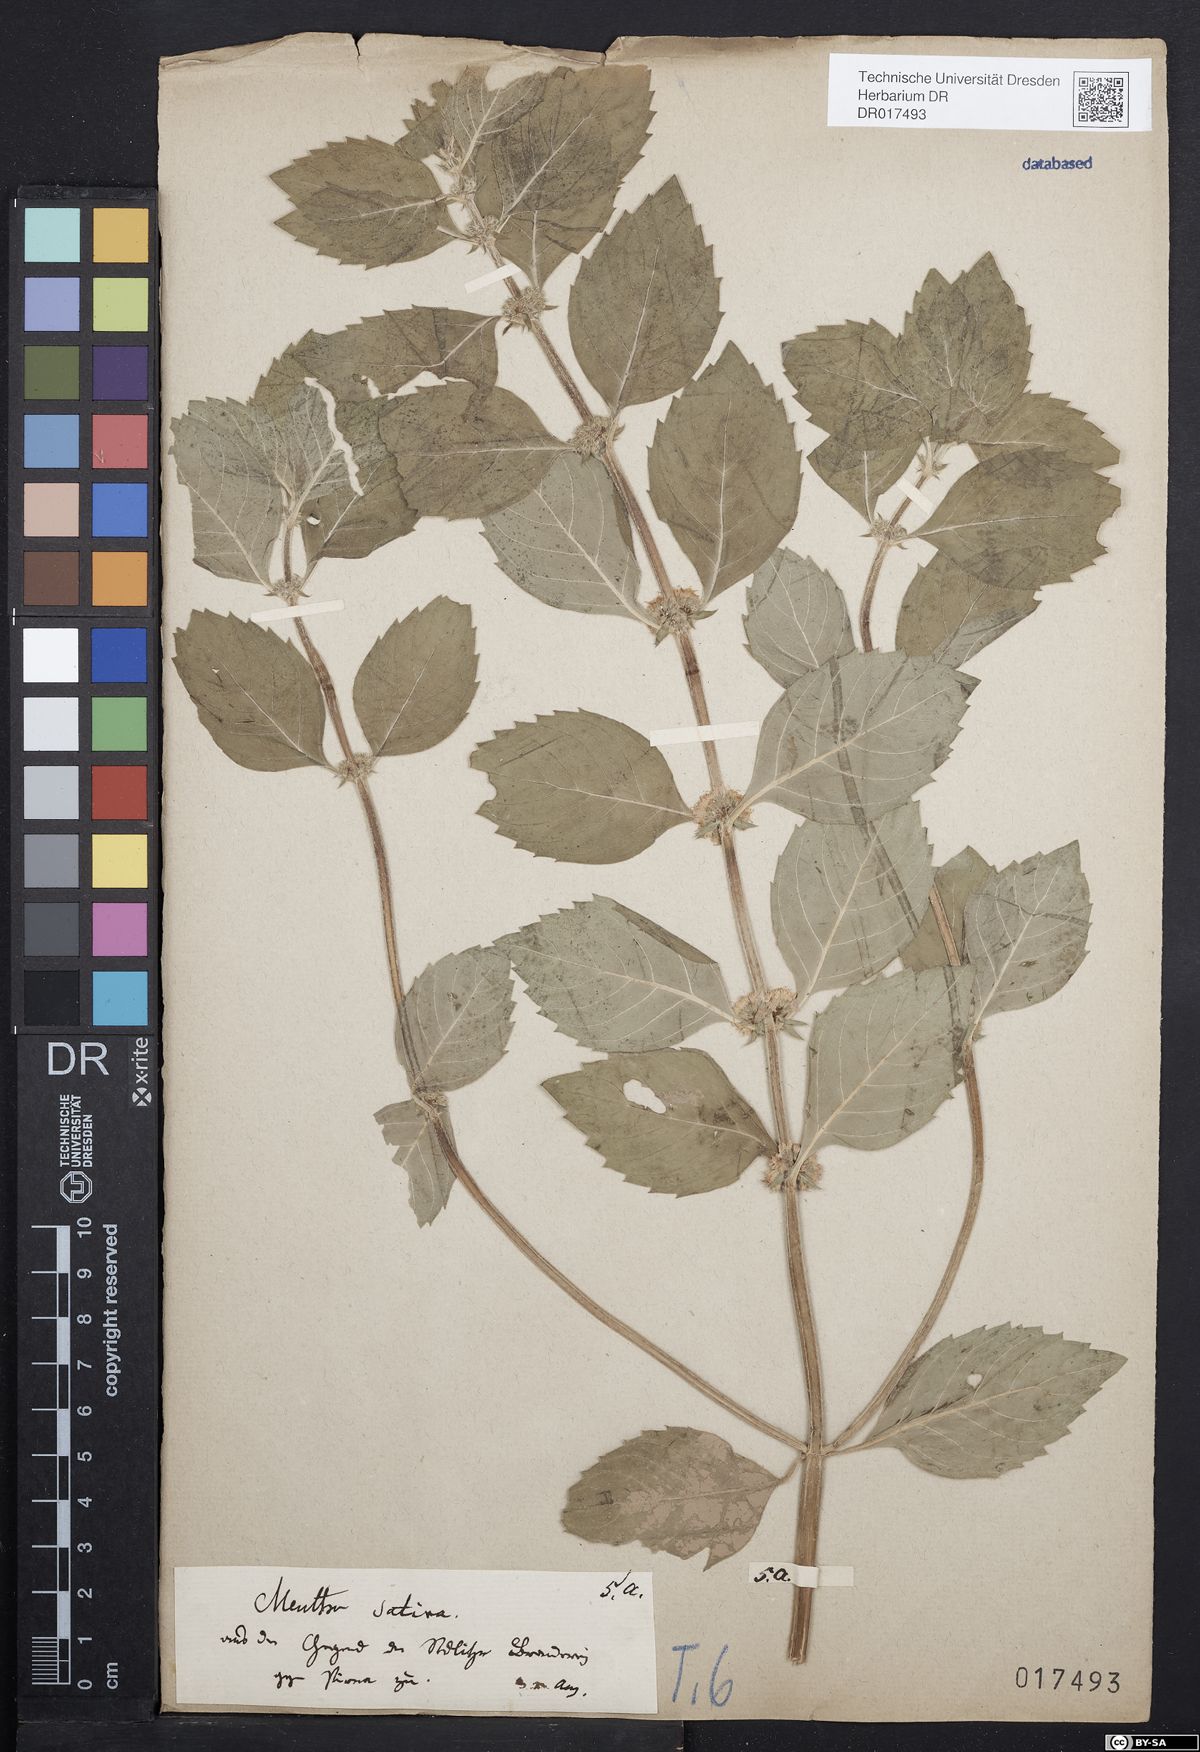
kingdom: Plantae
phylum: Tracheophyta
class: Magnoliopsida
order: Lamiales
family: Lamiaceae
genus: Mentha
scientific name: Mentha verticillata
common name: Mint
